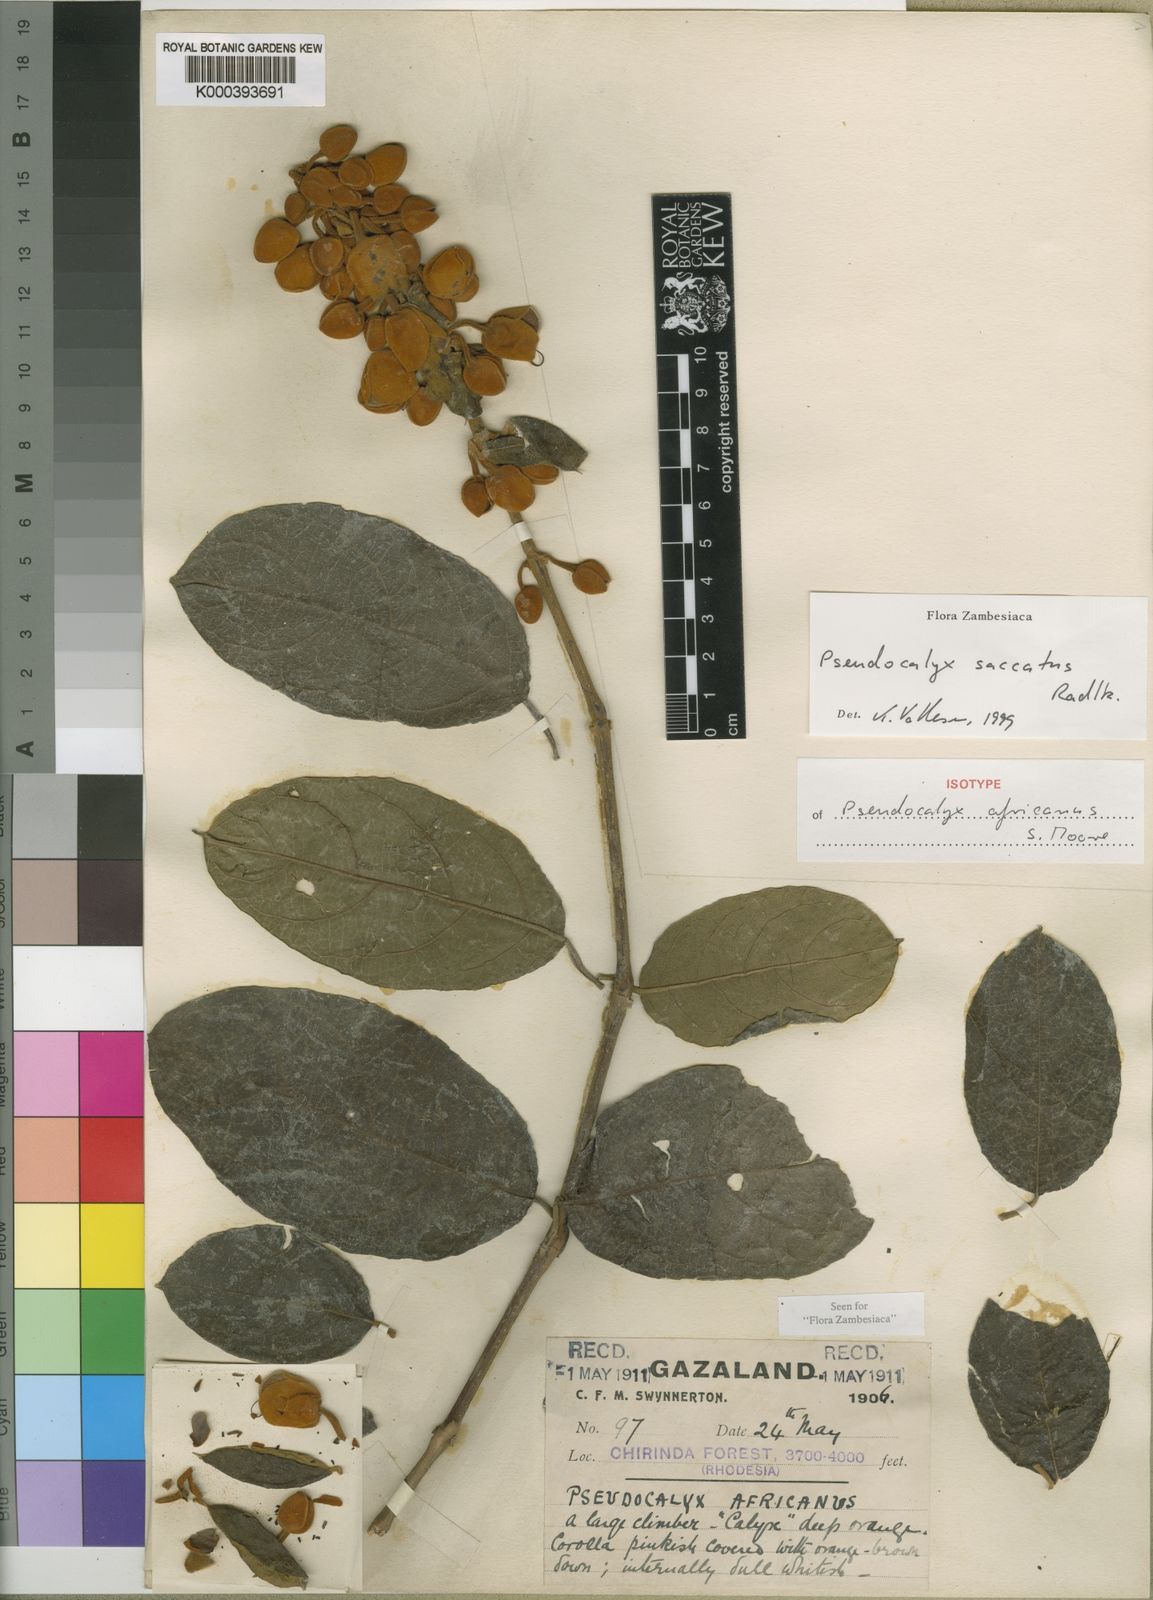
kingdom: Plantae
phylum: Tracheophyta
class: Magnoliopsida
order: Lamiales
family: Acanthaceae
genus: Pseudocalyx
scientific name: Pseudocalyx saccatus
